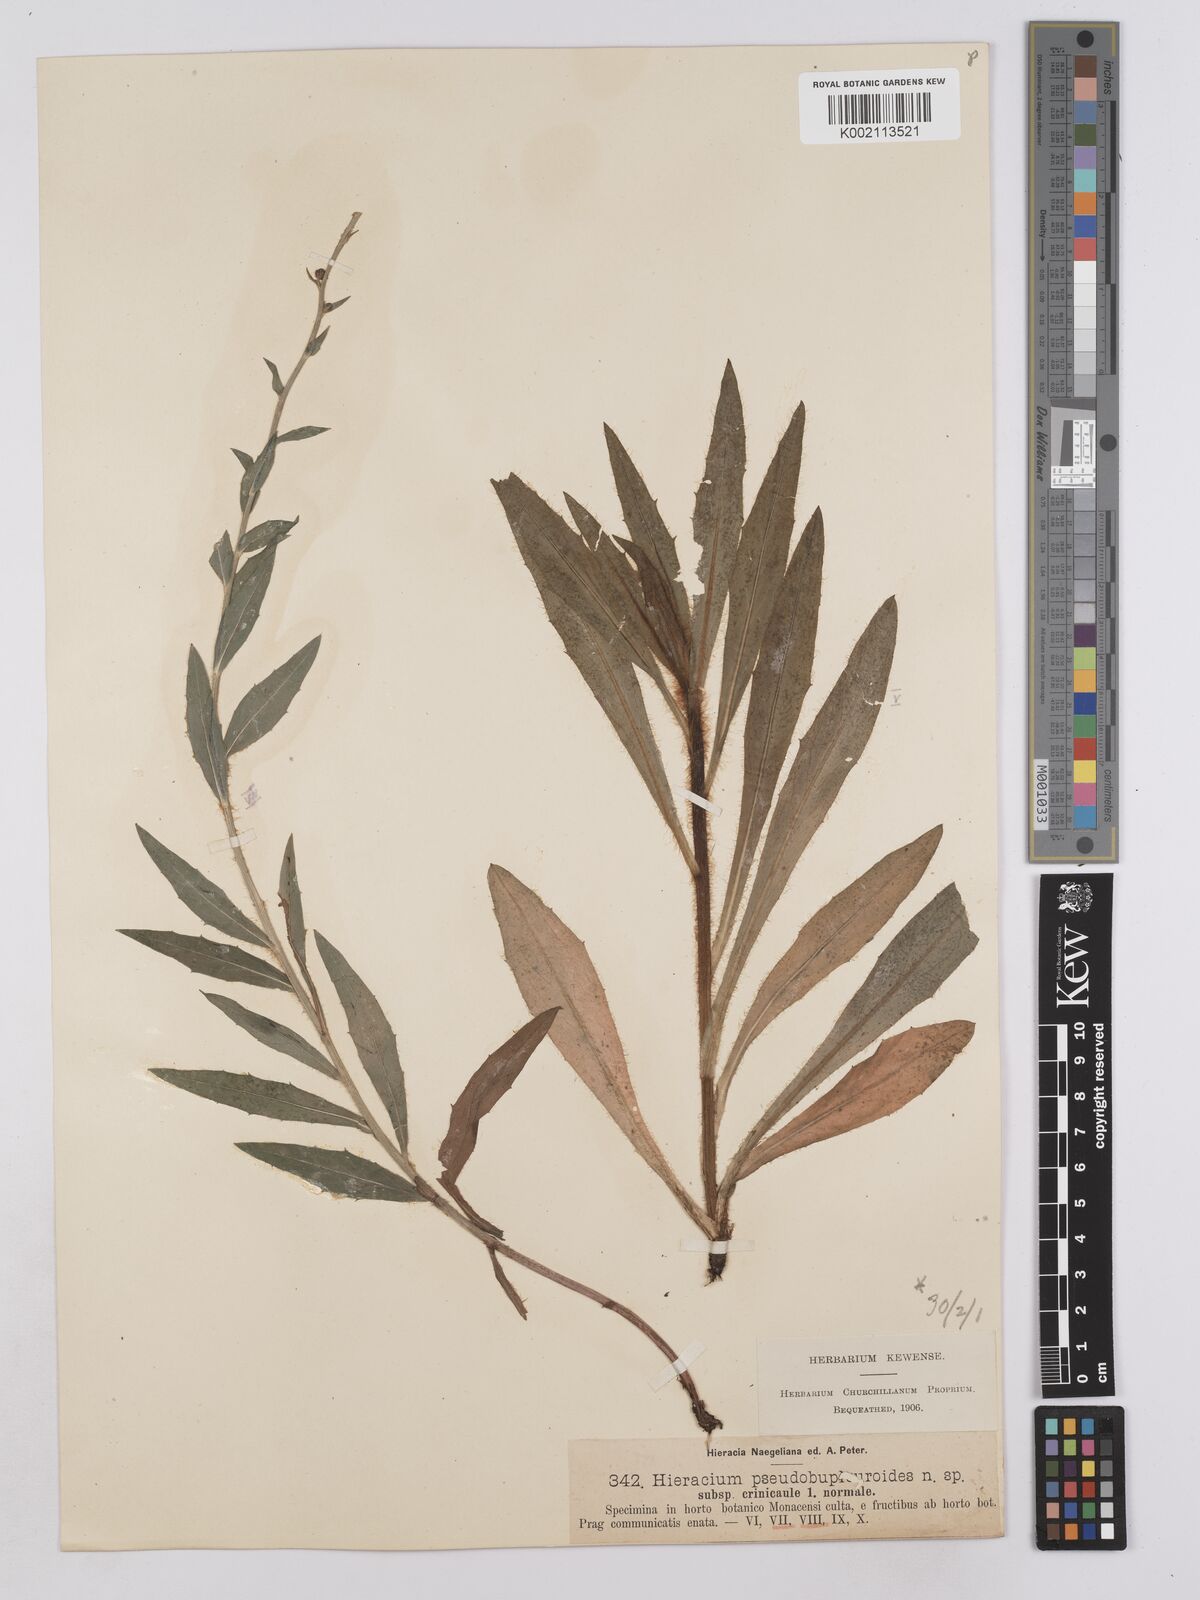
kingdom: Plantae
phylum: Tracheophyta
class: Magnoliopsida
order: Asterales
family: Asteraceae
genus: Hieracium
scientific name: Hieracium vindobonense
